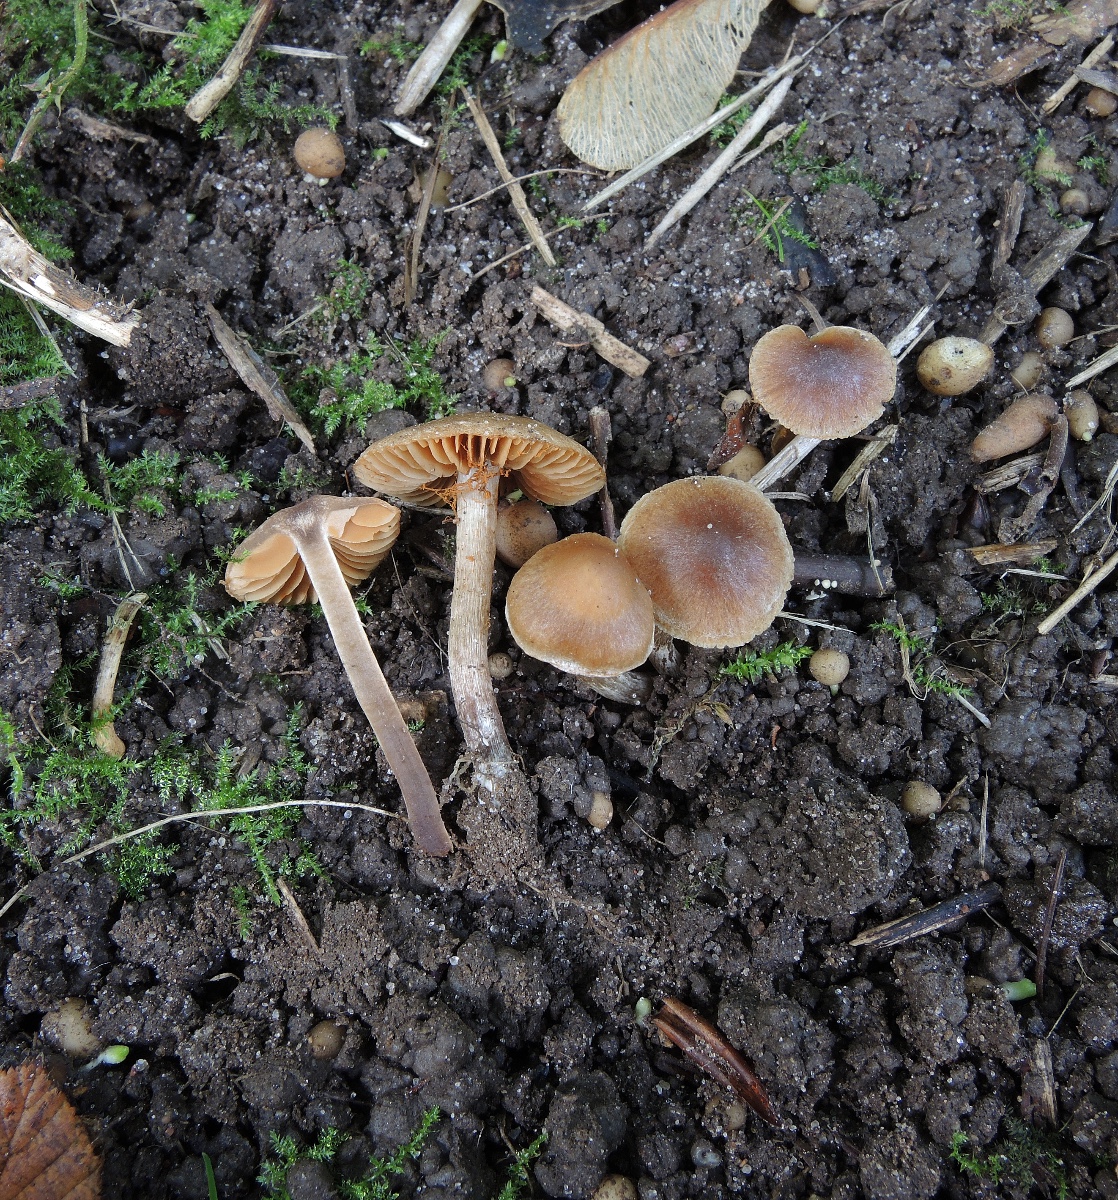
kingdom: Fungi
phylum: Basidiomycota
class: Agaricomycetes
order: Agaricales
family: Cortinariaceae
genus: Cortinarius
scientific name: Cortinarius
